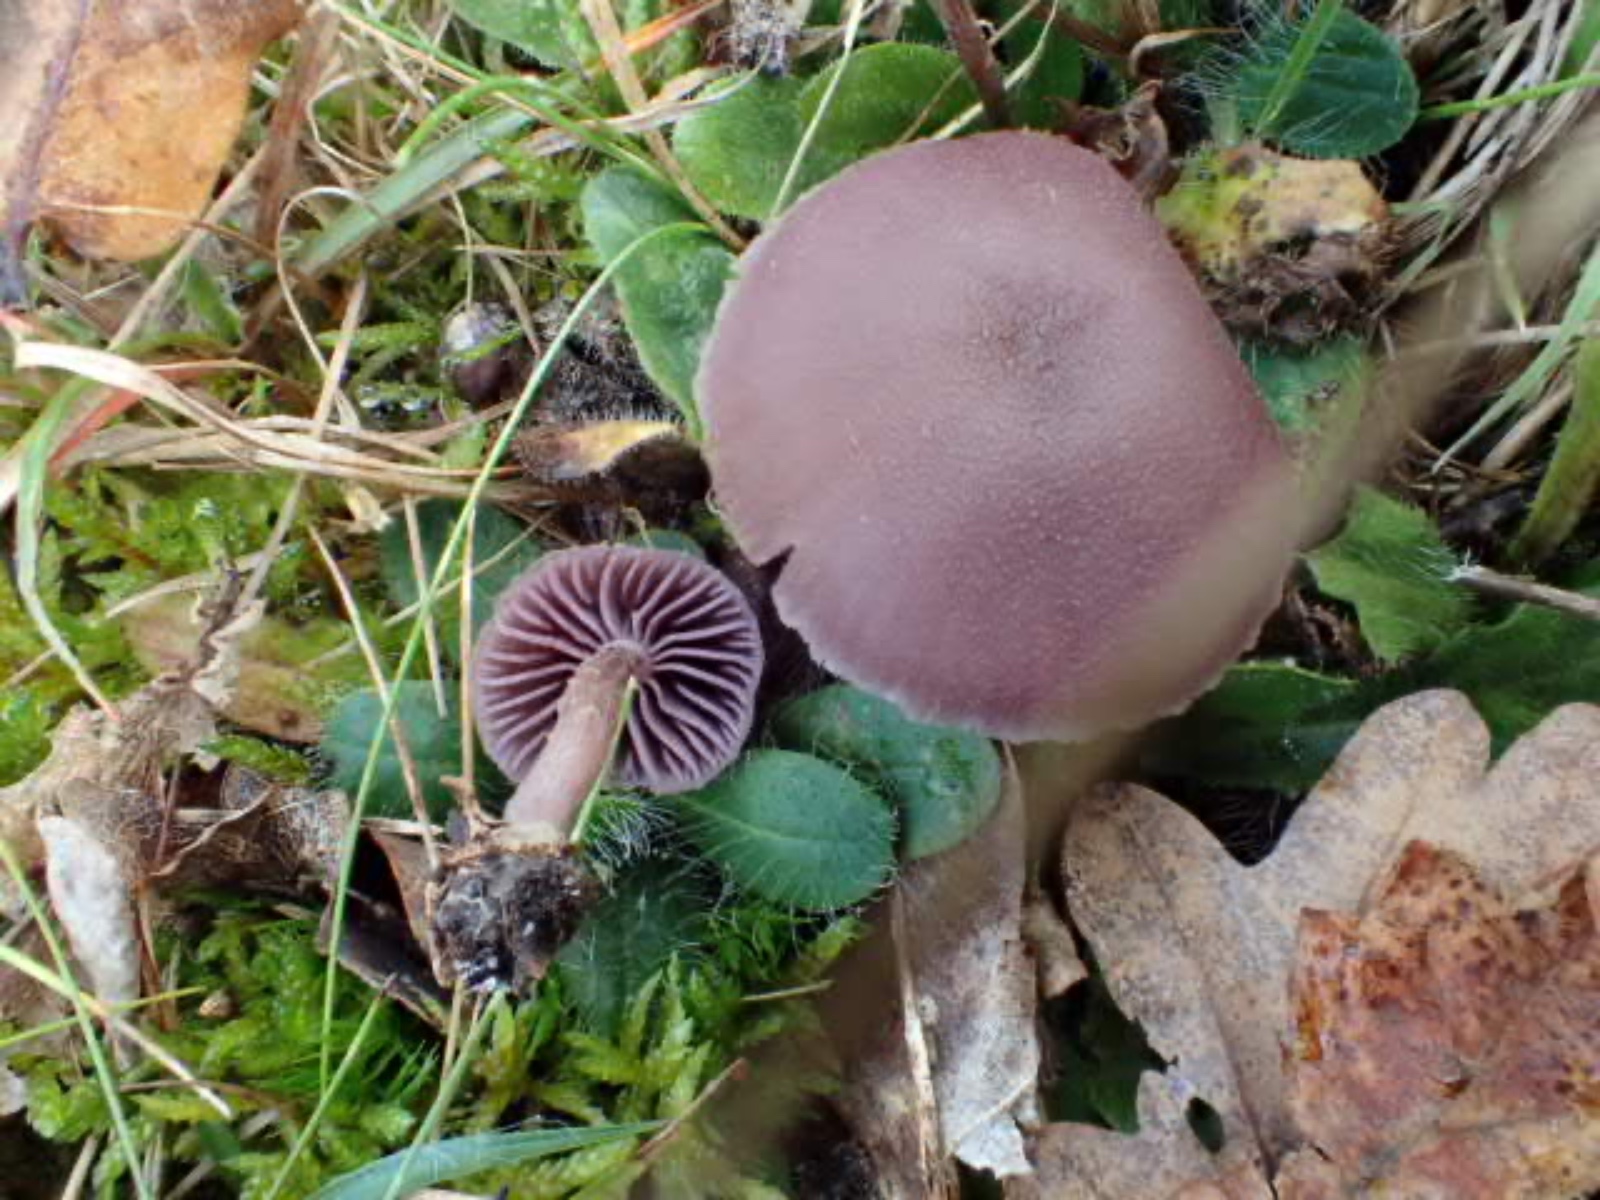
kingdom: Fungi
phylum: Basidiomycota
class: Agaricomycetes
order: Agaricales
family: Hydnangiaceae
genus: Laccaria
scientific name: Laccaria amethystina
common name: violet ametysthat
